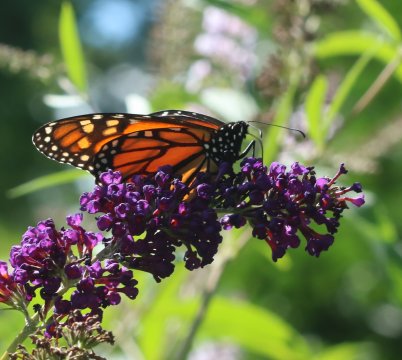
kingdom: Animalia
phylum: Arthropoda
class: Insecta
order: Lepidoptera
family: Nymphalidae
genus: Danaus
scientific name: Danaus plexippus
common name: Monarch
